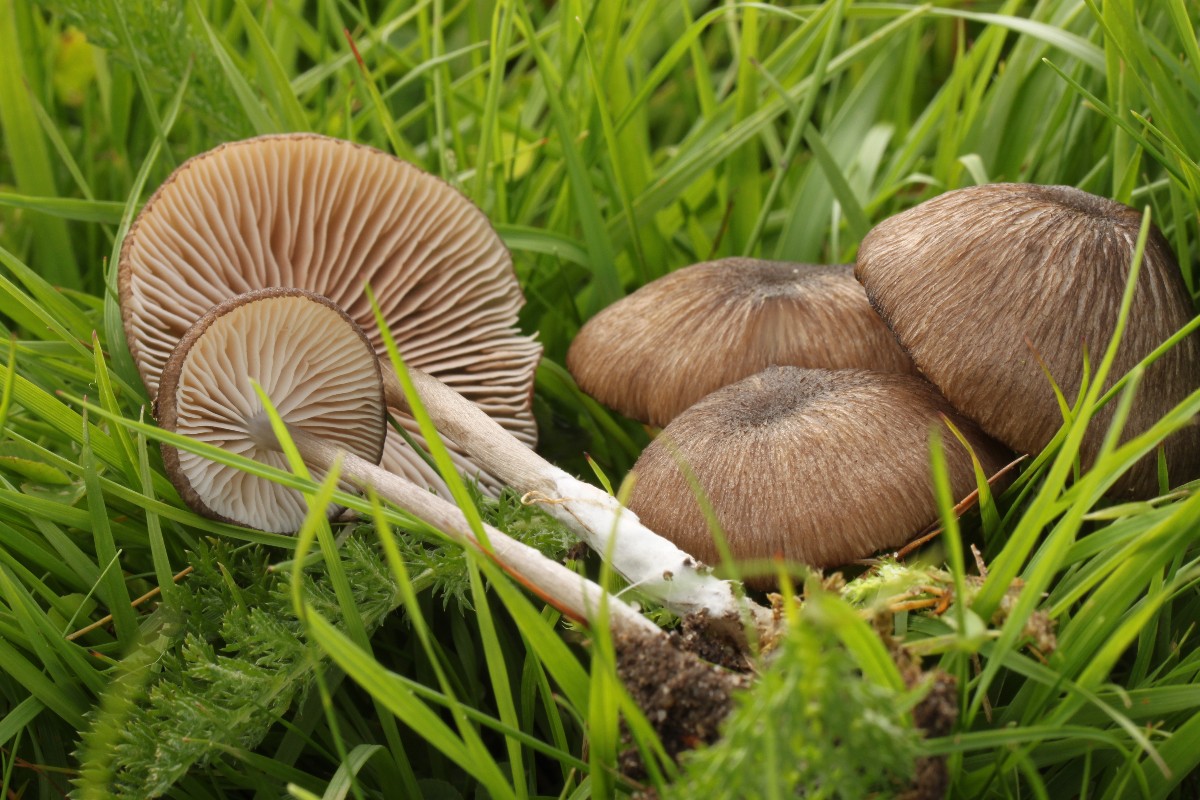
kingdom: Fungi
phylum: Basidiomycota
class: Agaricomycetes
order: Agaricales
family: Entolomataceae
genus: Entoloma
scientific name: Entoloma porphyrogriseum
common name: porfyrgrå rødblad
